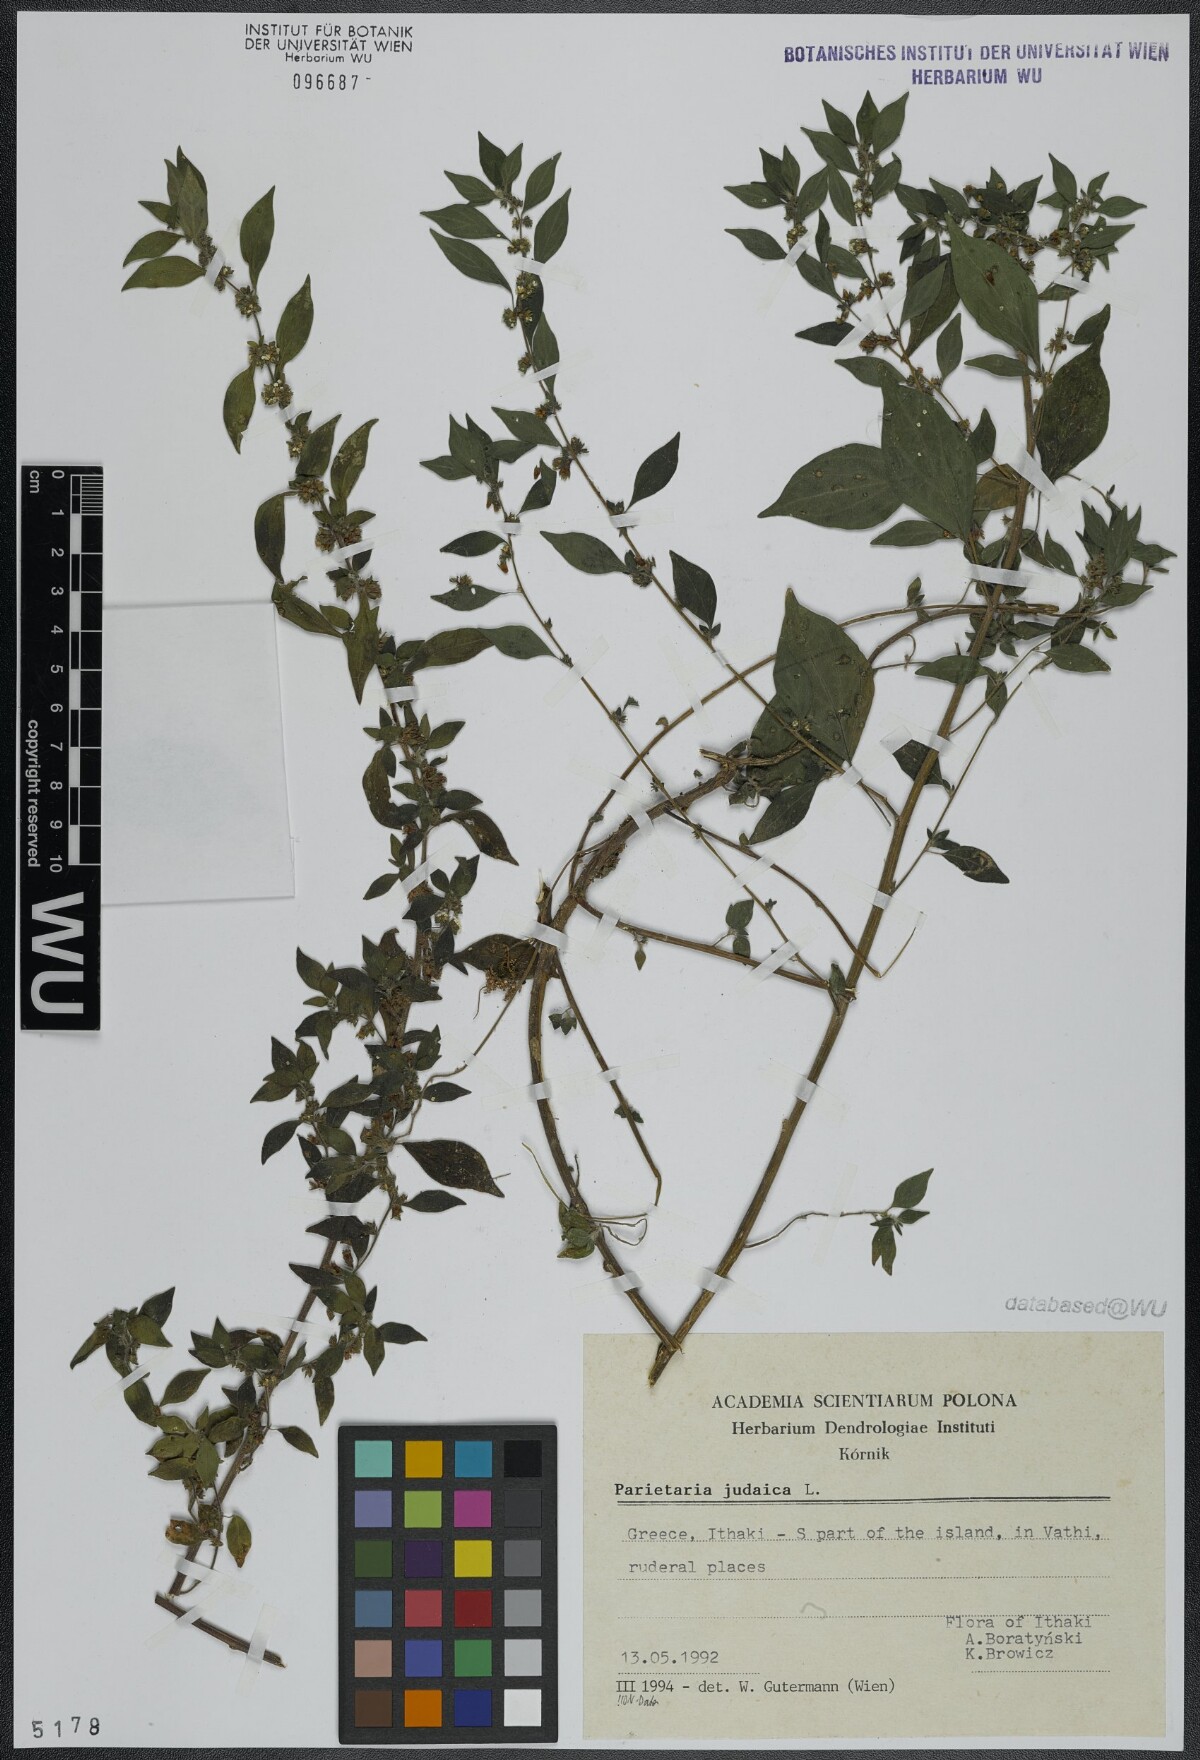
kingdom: Plantae
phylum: Tracheophyta
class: Magnoliopsida
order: Rosales
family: Urticaceae
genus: Parietaria
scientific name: Parietaria judaica
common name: Pellitory-of-the-wall
